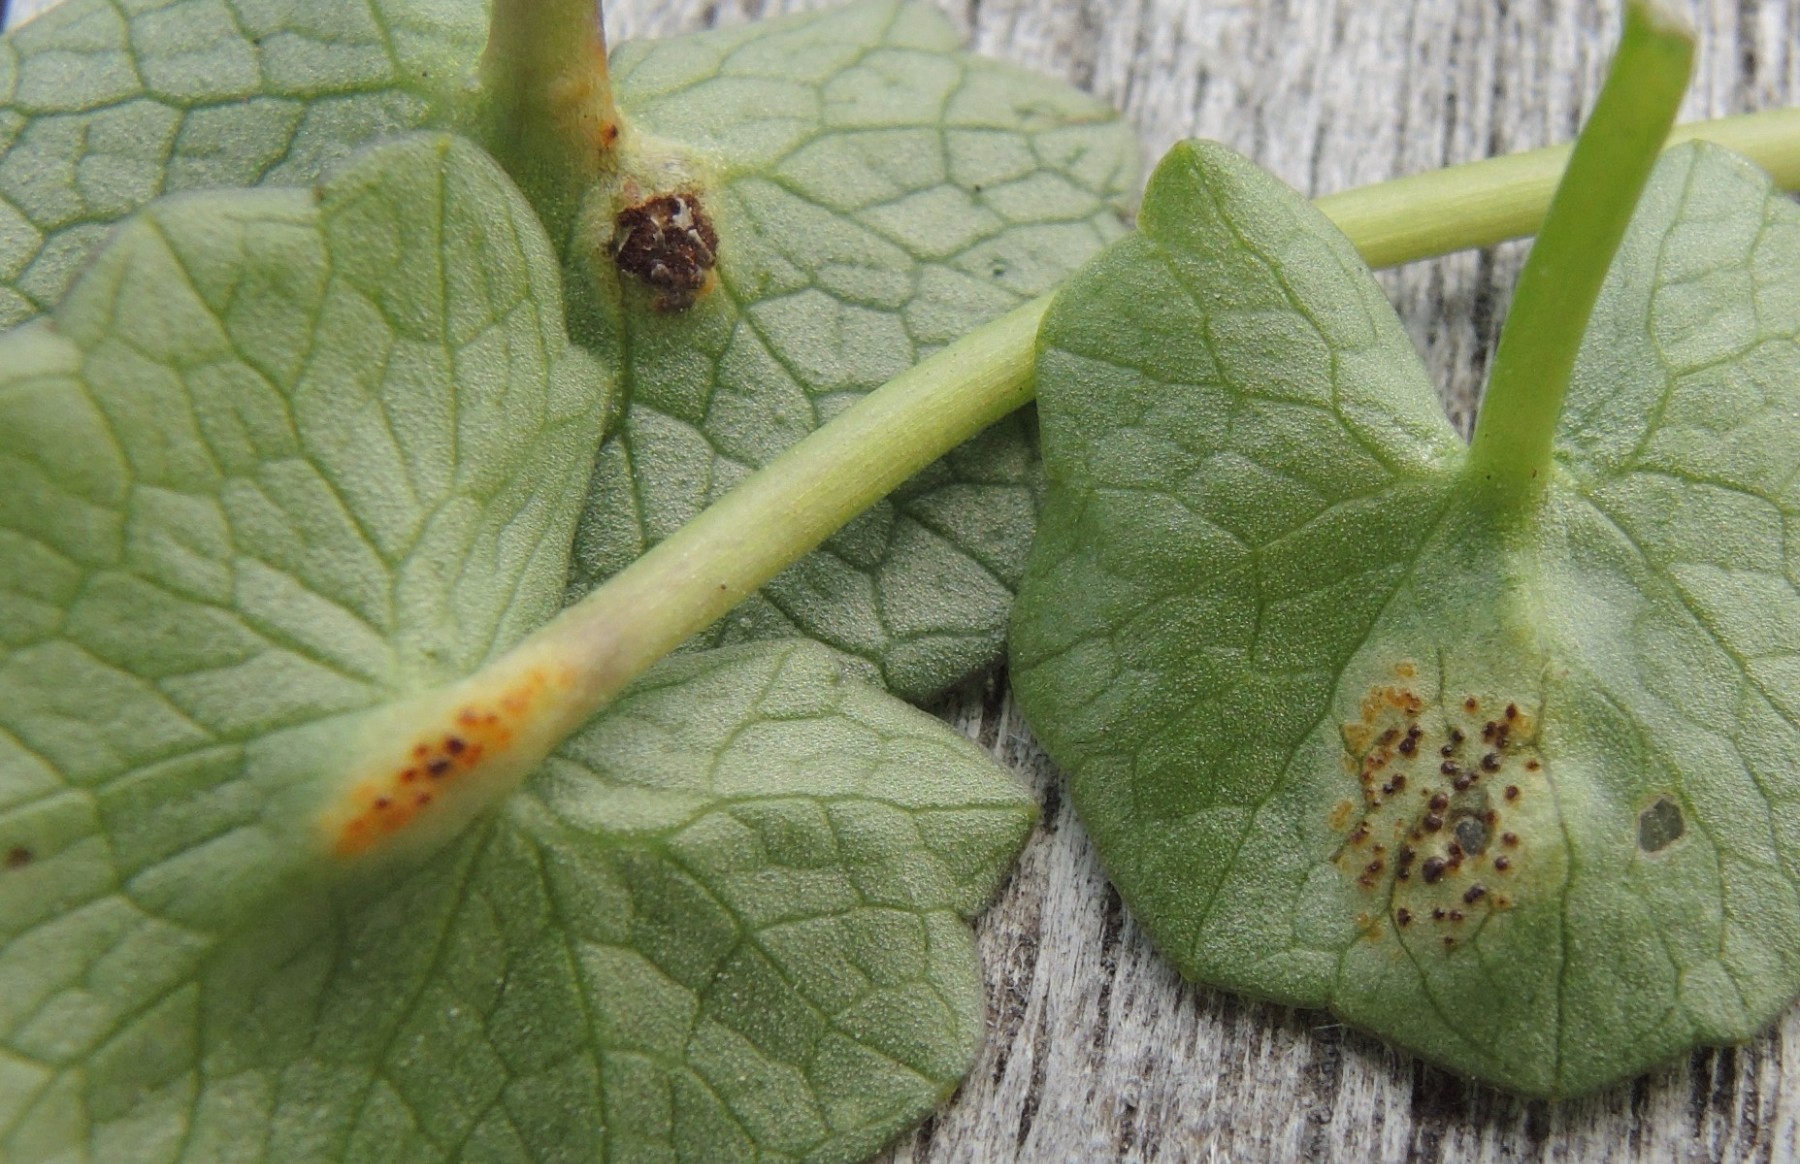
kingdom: Fungi
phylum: Basidiomycota
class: Pucciniomycetes
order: Pucciniales
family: Pucciniaceae
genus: Uromyces
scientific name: Uromyces ficariae
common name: vorterod-encellerust
